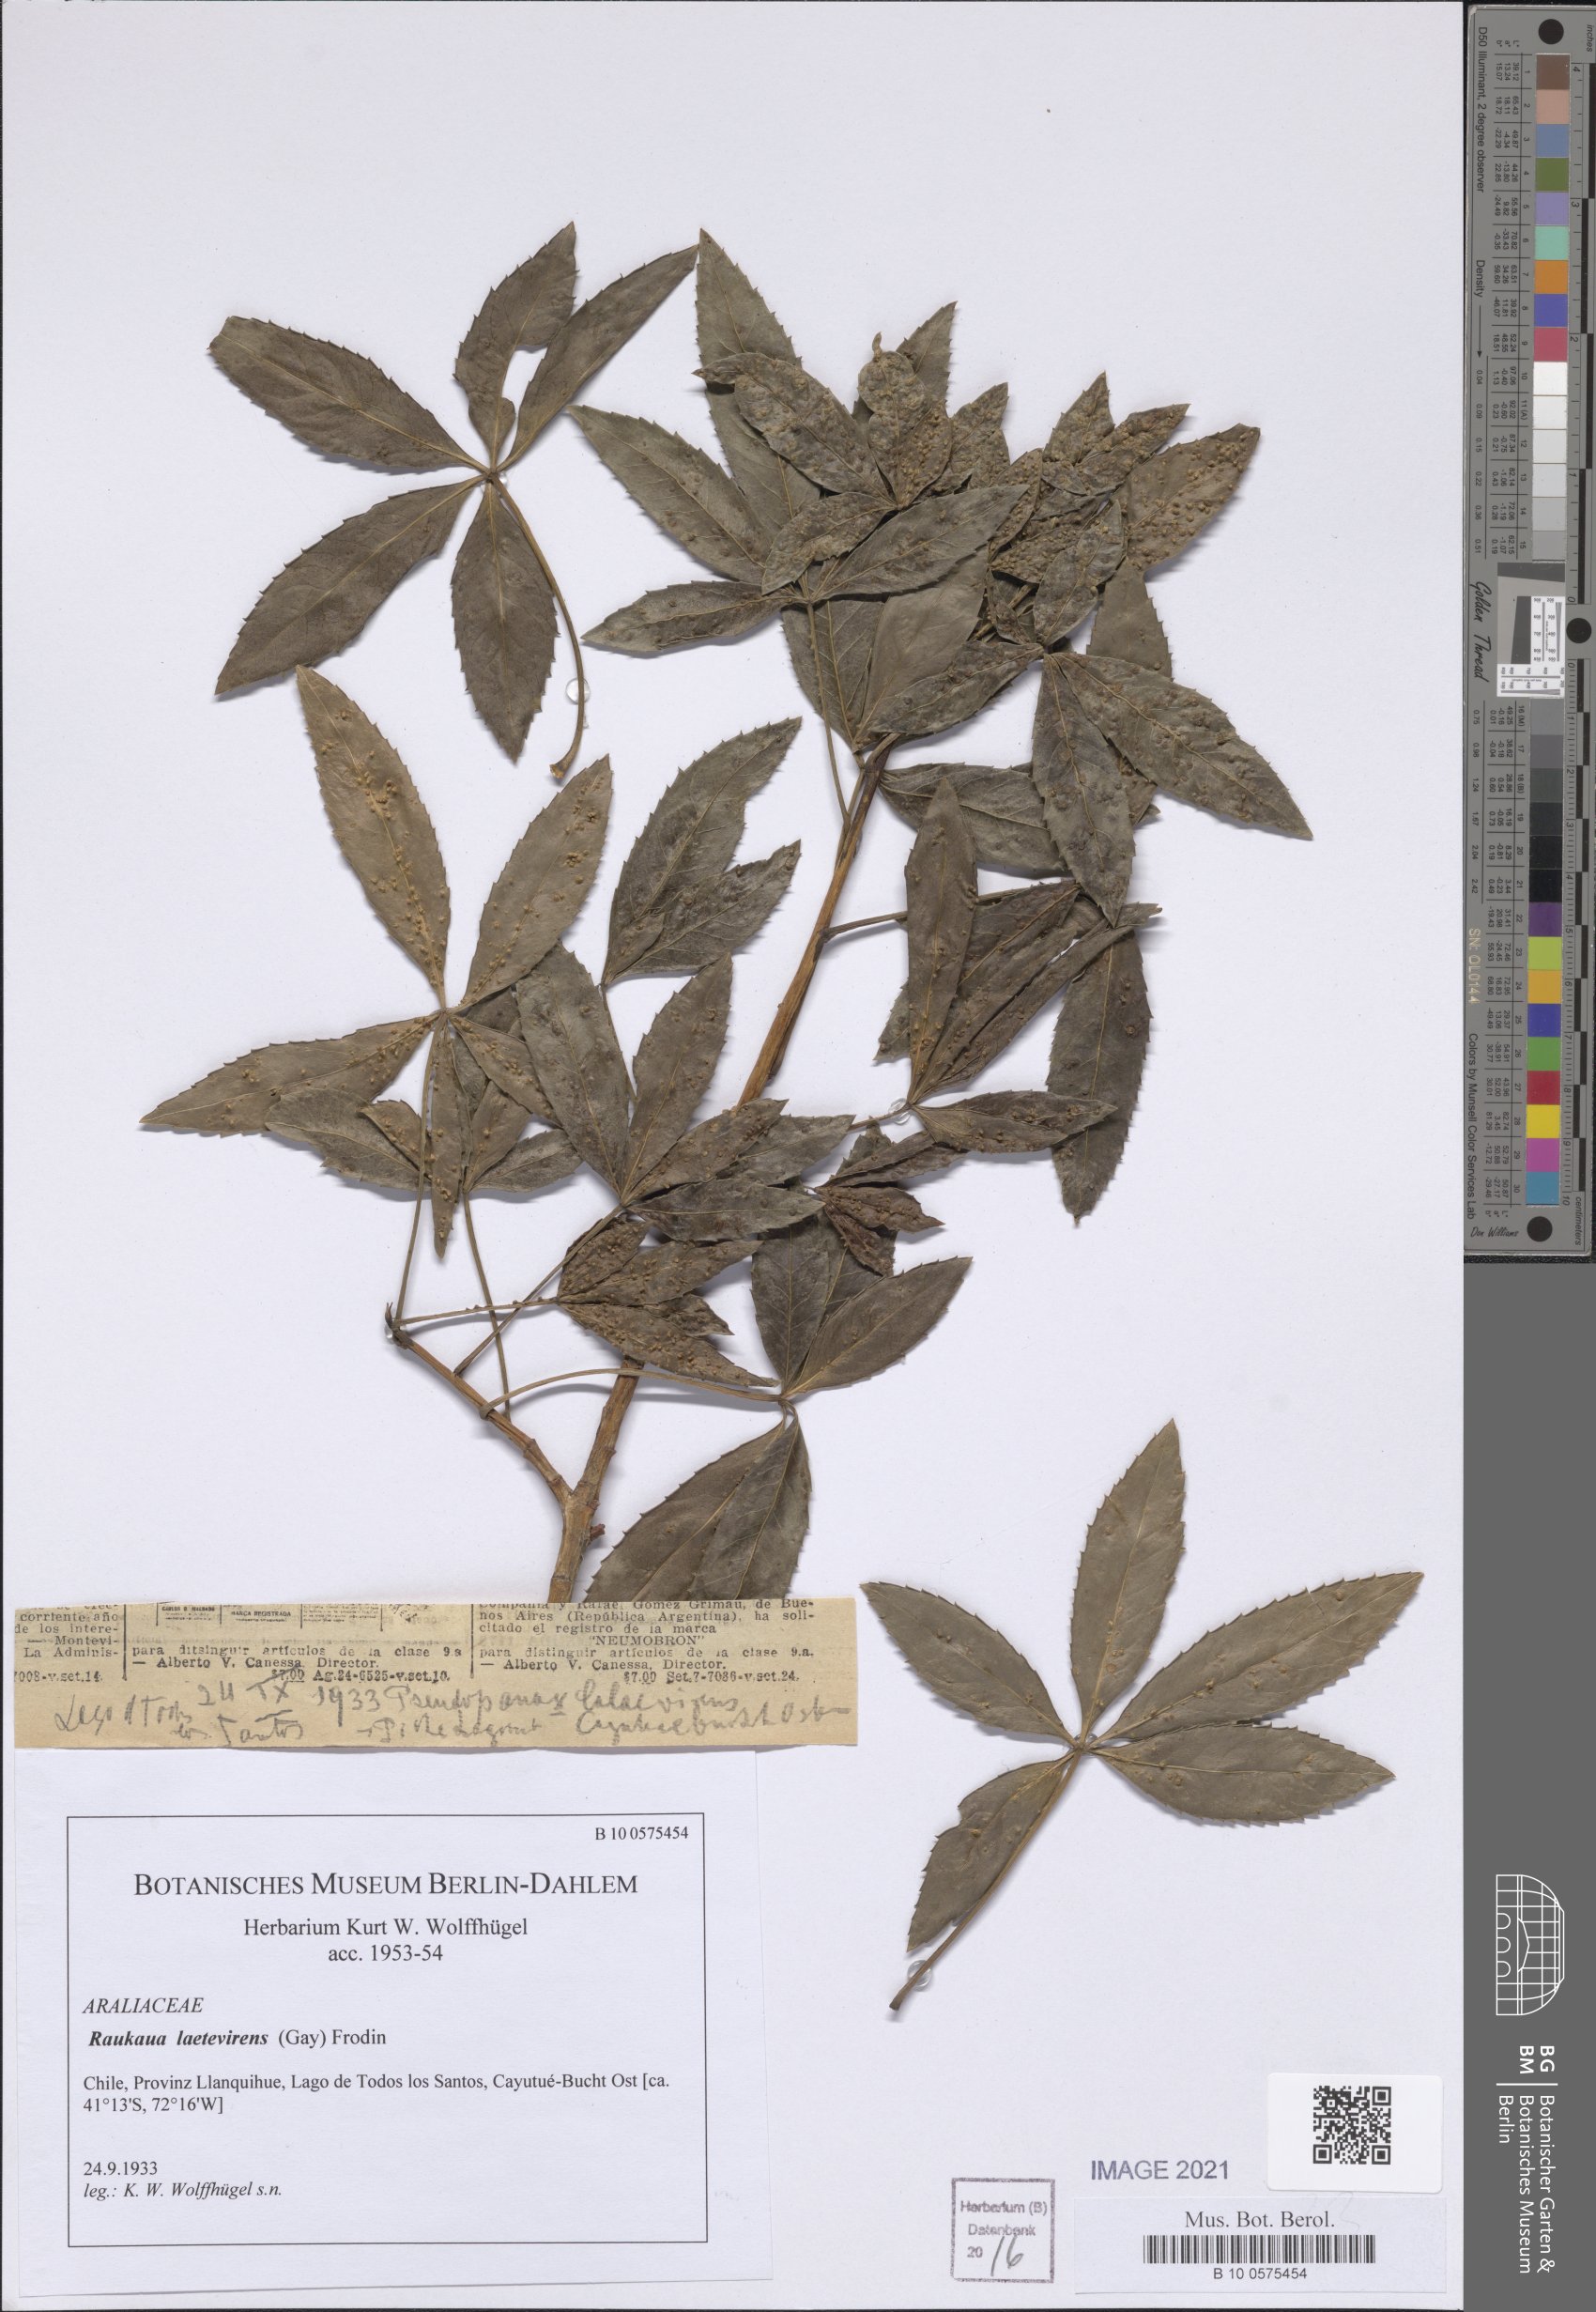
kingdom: Plantae
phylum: Tracheophyta
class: Magnoliopsida
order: Apiales
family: Araliaceae
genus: Raukaua
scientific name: Raukaua laetevirens
